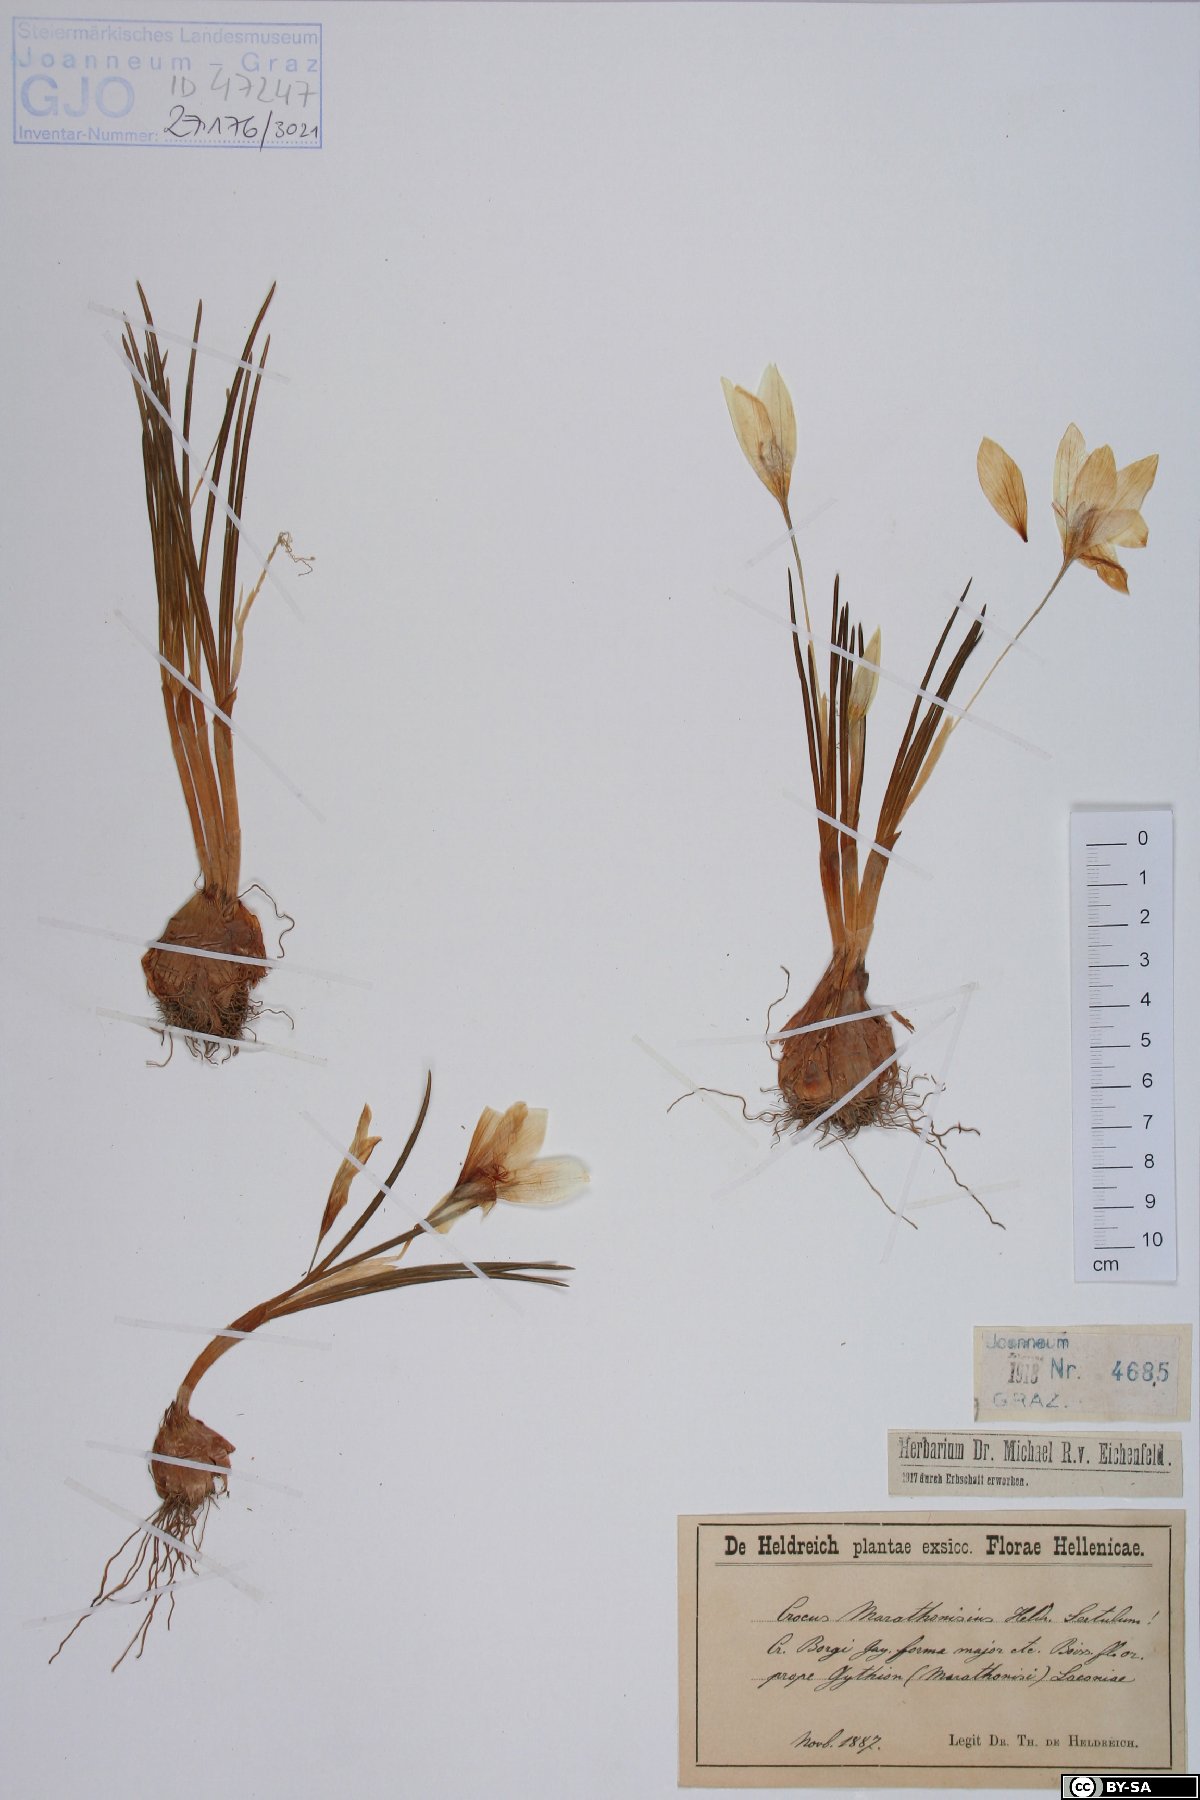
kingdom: Plantae
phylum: Tracheophyta
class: Liliopsida
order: Asparagales
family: Iridaceae
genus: Crocus
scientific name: Crocus boryi
